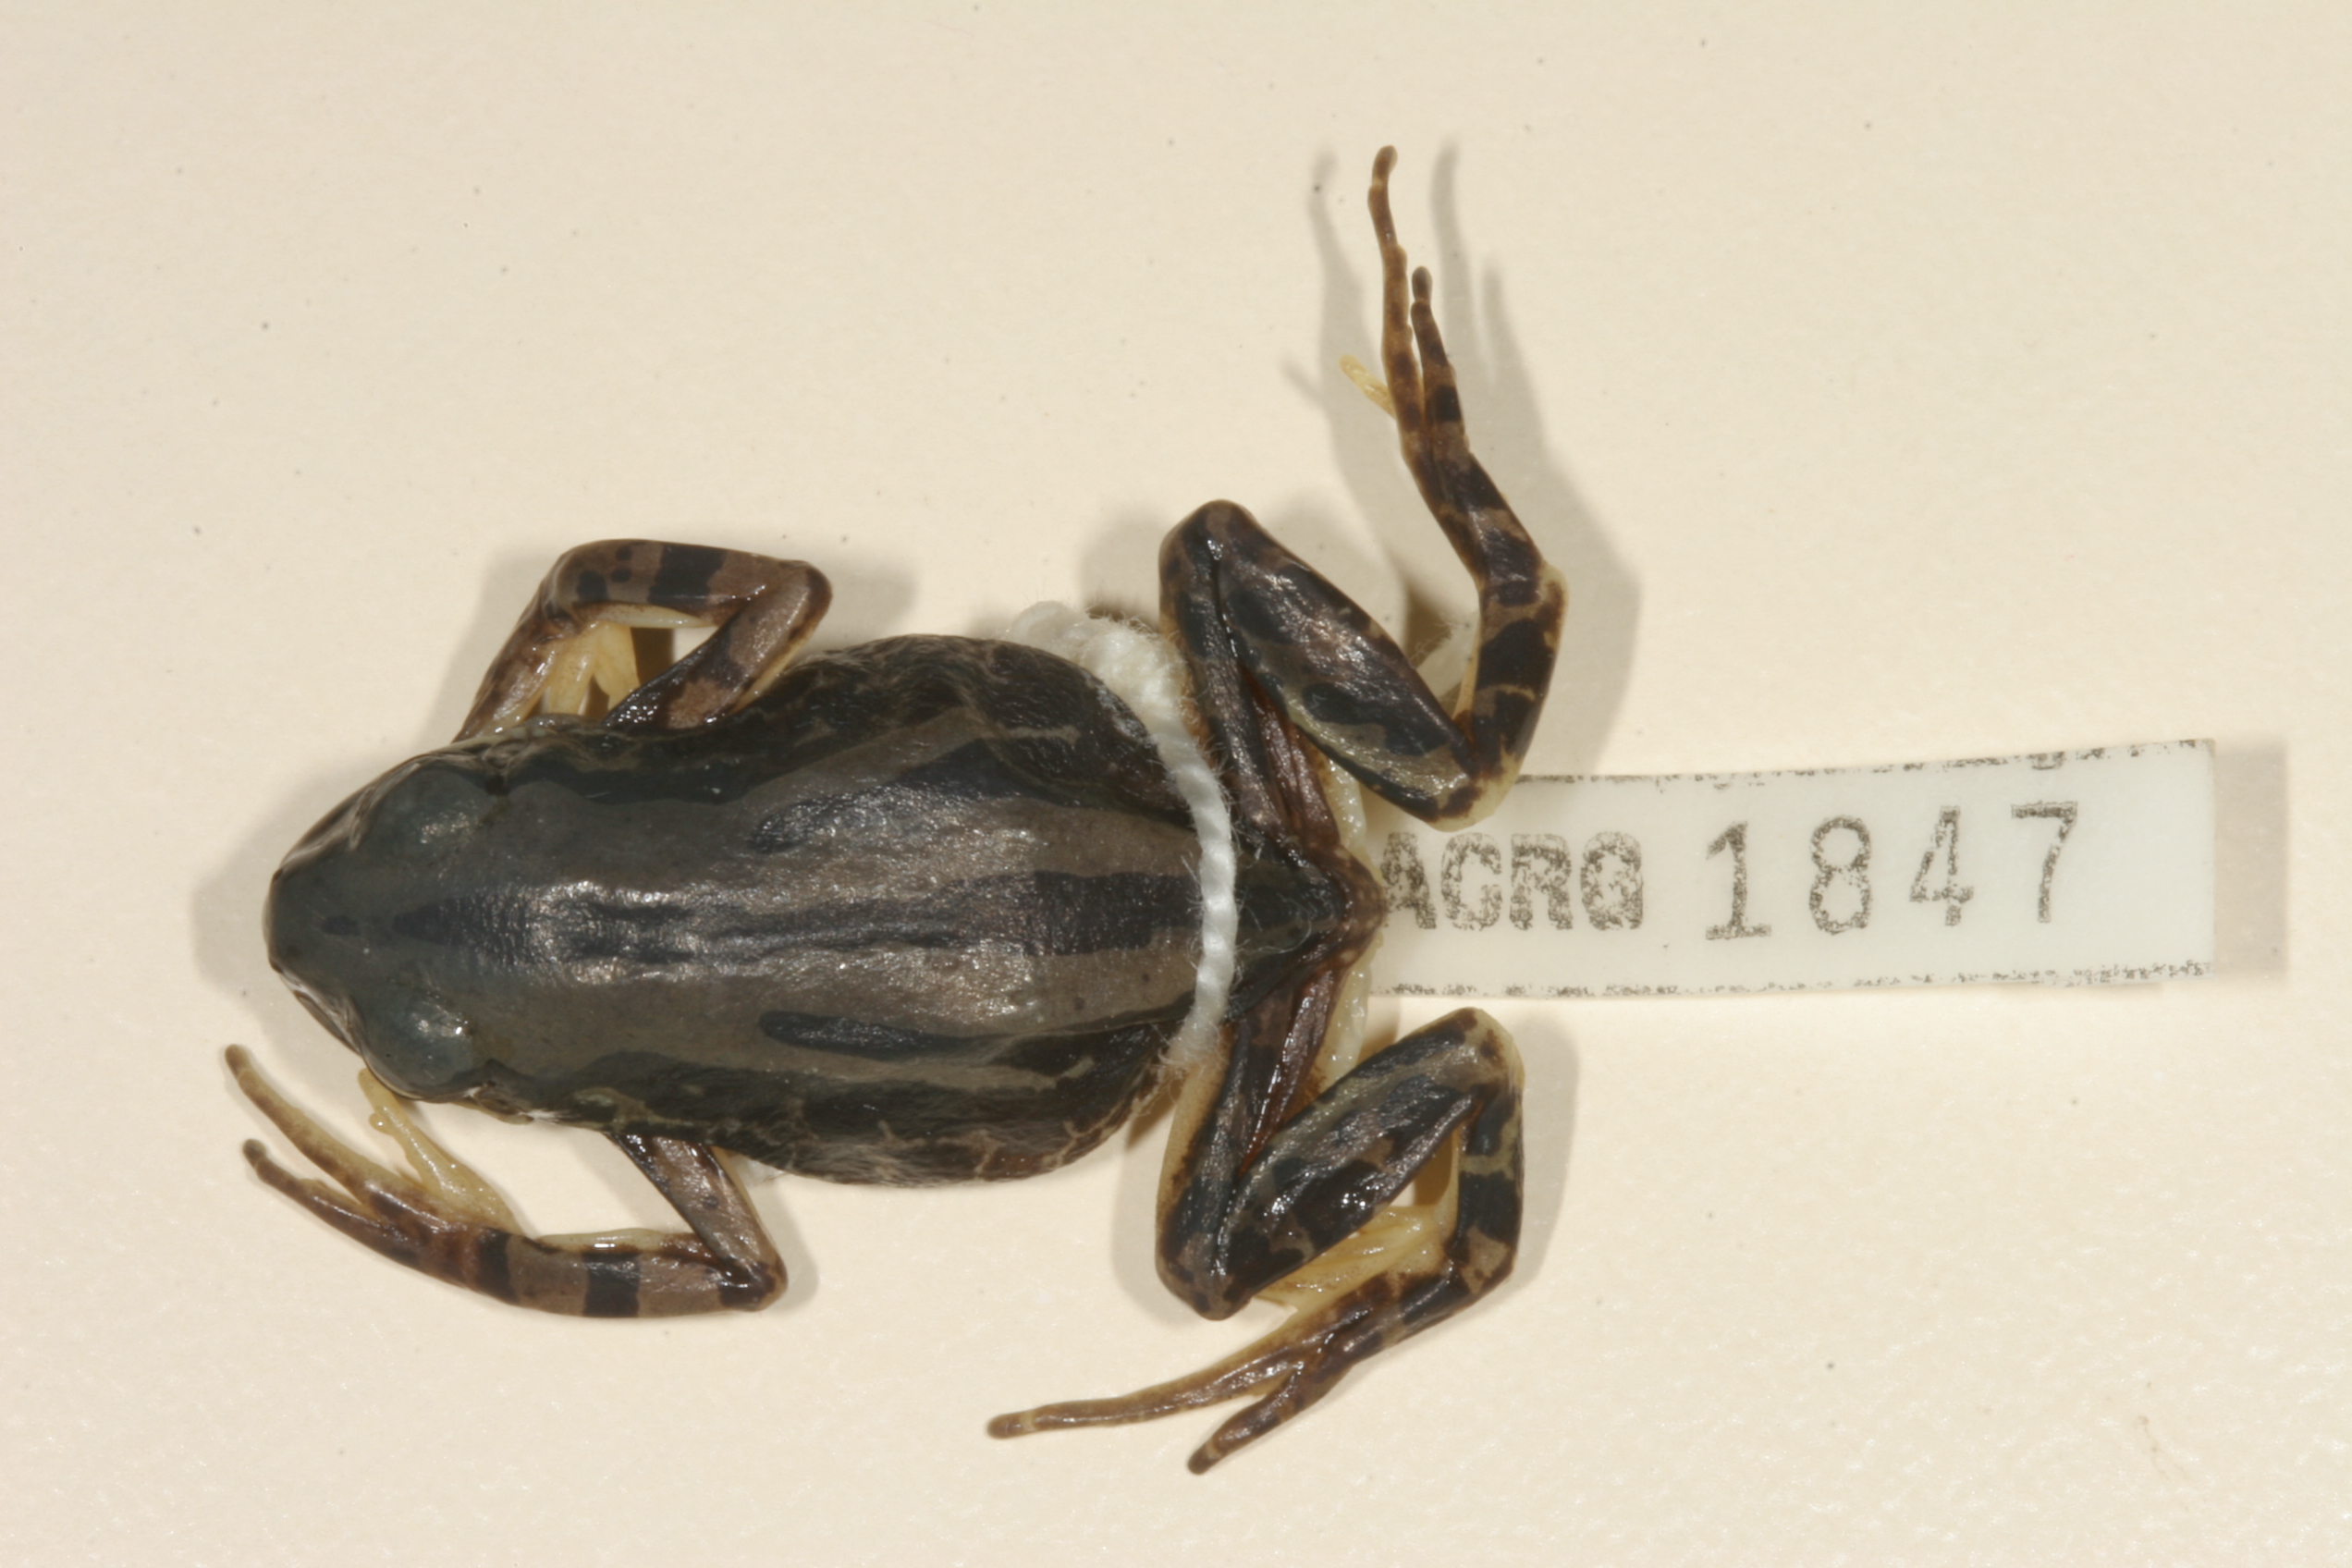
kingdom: Animalia
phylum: Chordata
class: Amphibia
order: Anura
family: Hyperoliidae
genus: Semnodactylus
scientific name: Semnodactylus wealii
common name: Weal's frog
